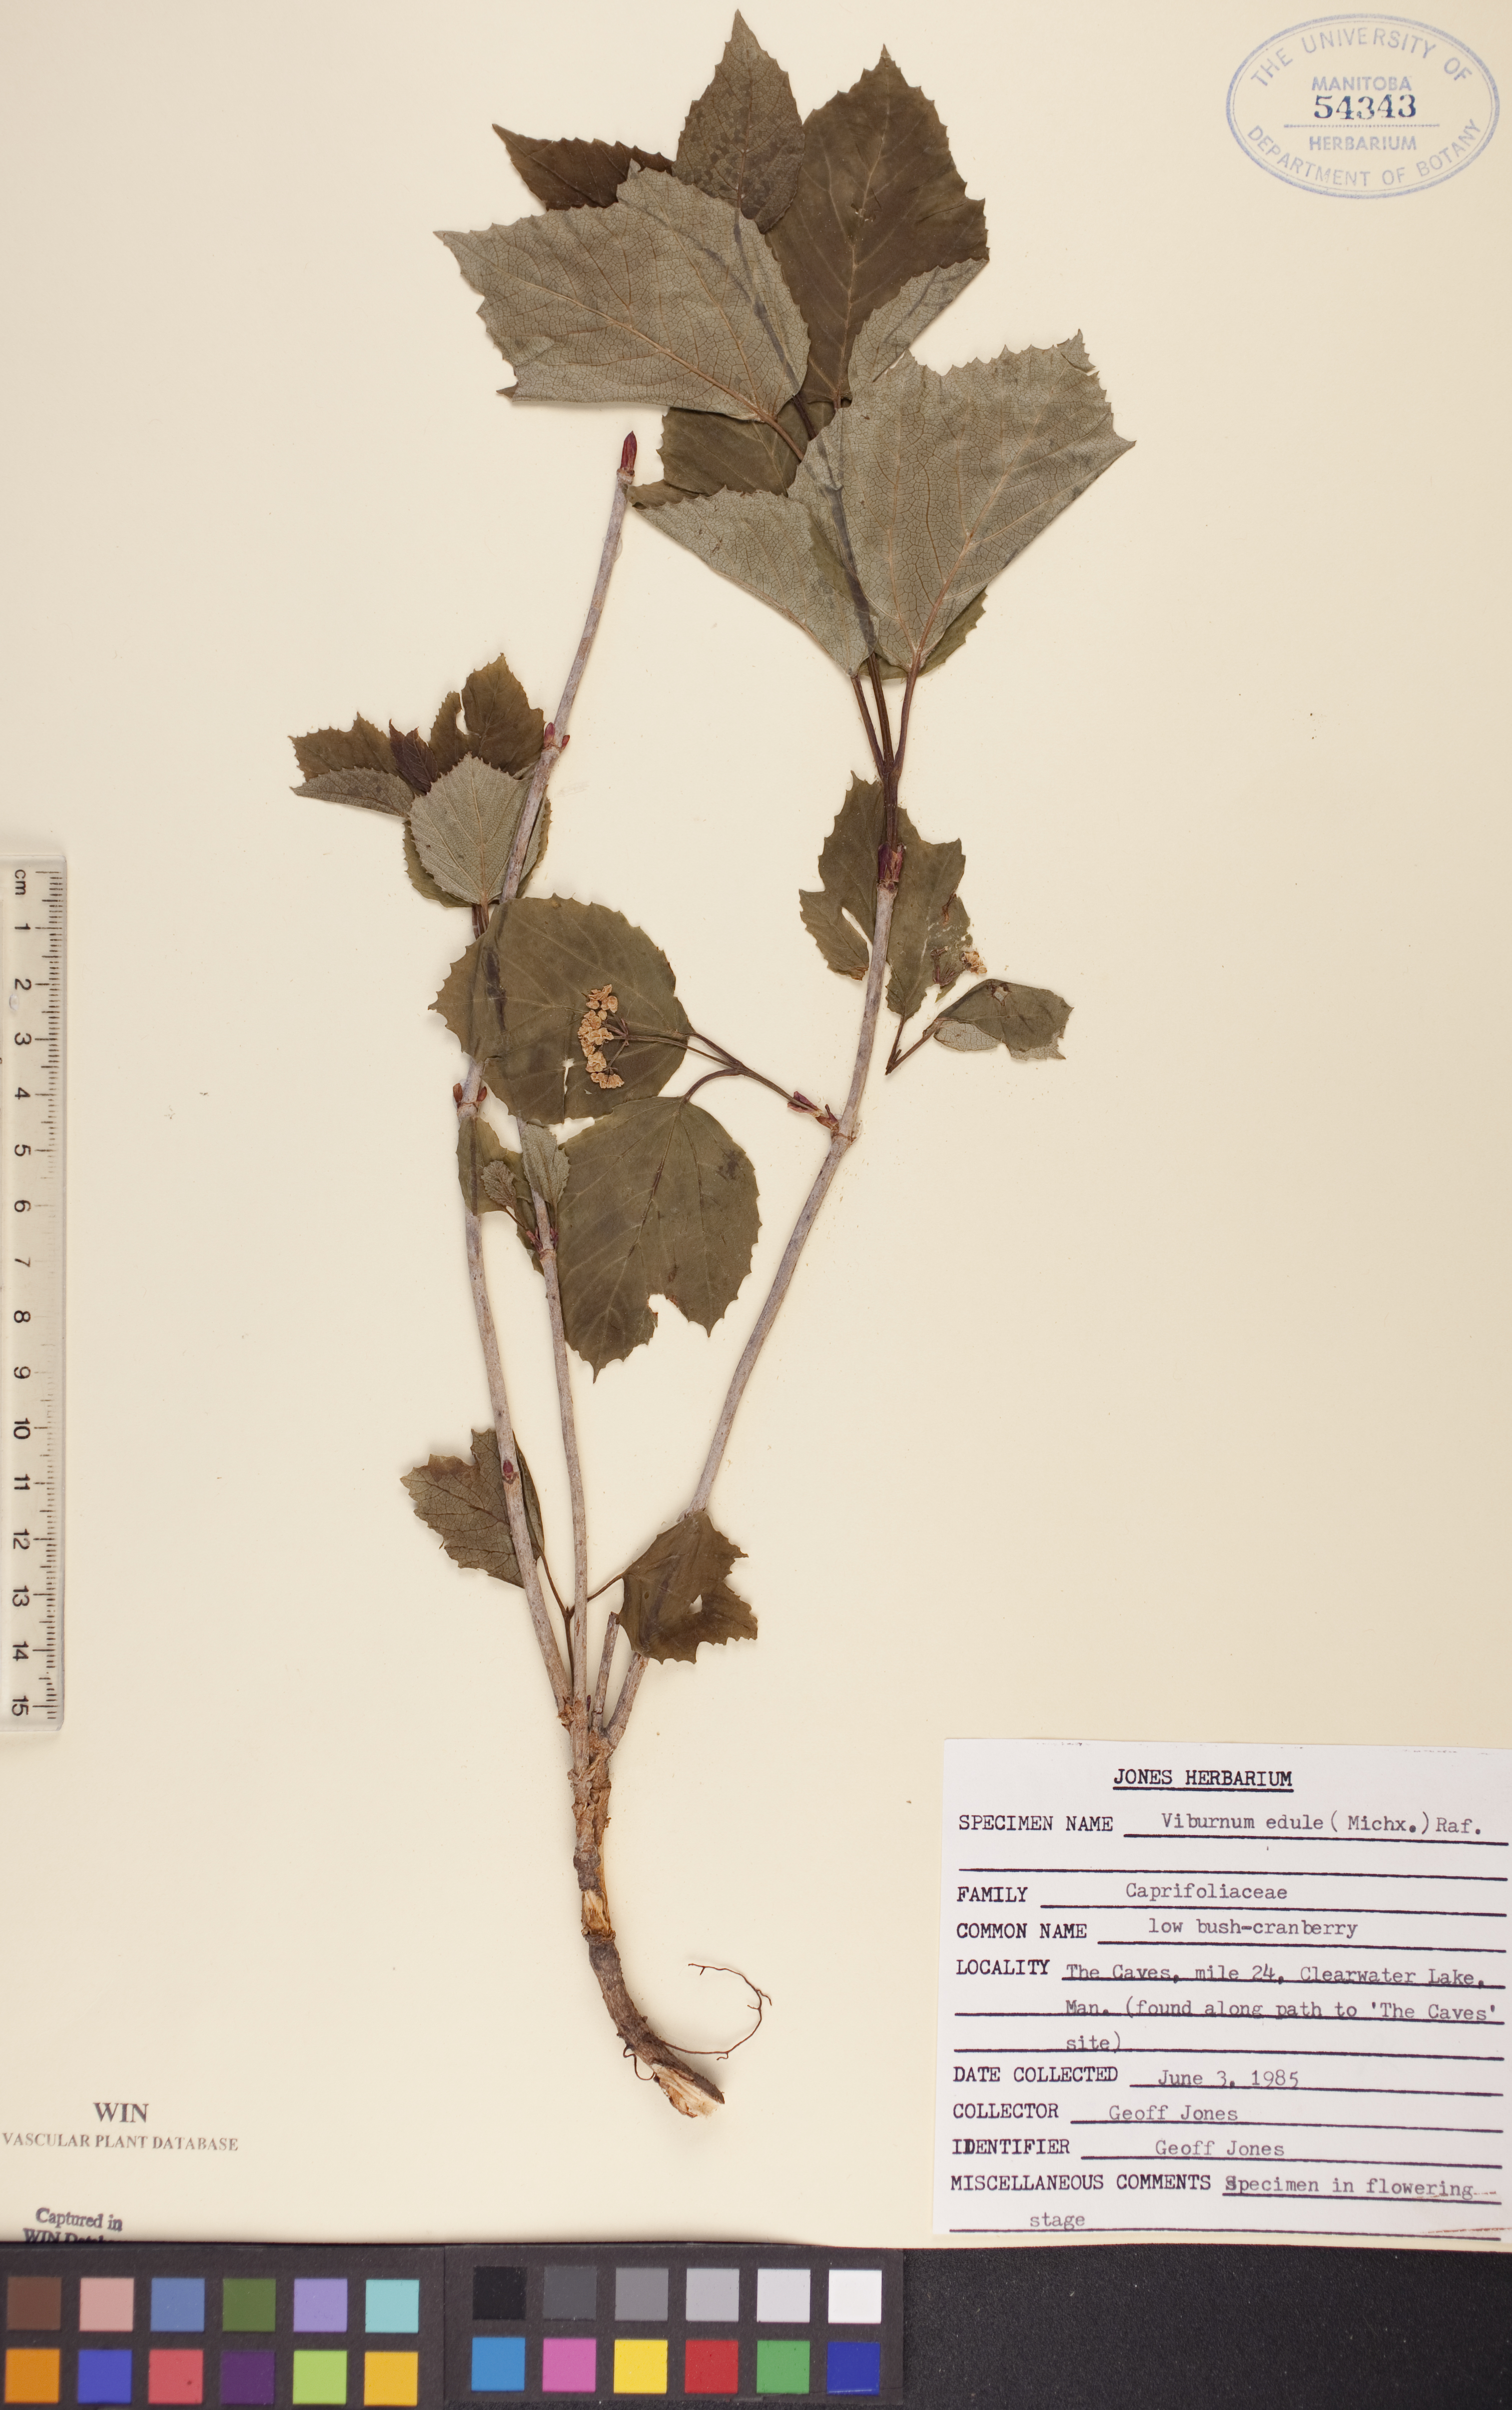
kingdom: Plantae
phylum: Tracheophyta
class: Magnoliopsida
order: Dipsacales
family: Viburnaceae
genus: Viburnum
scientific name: Viburnum edule
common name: Mooseberry
